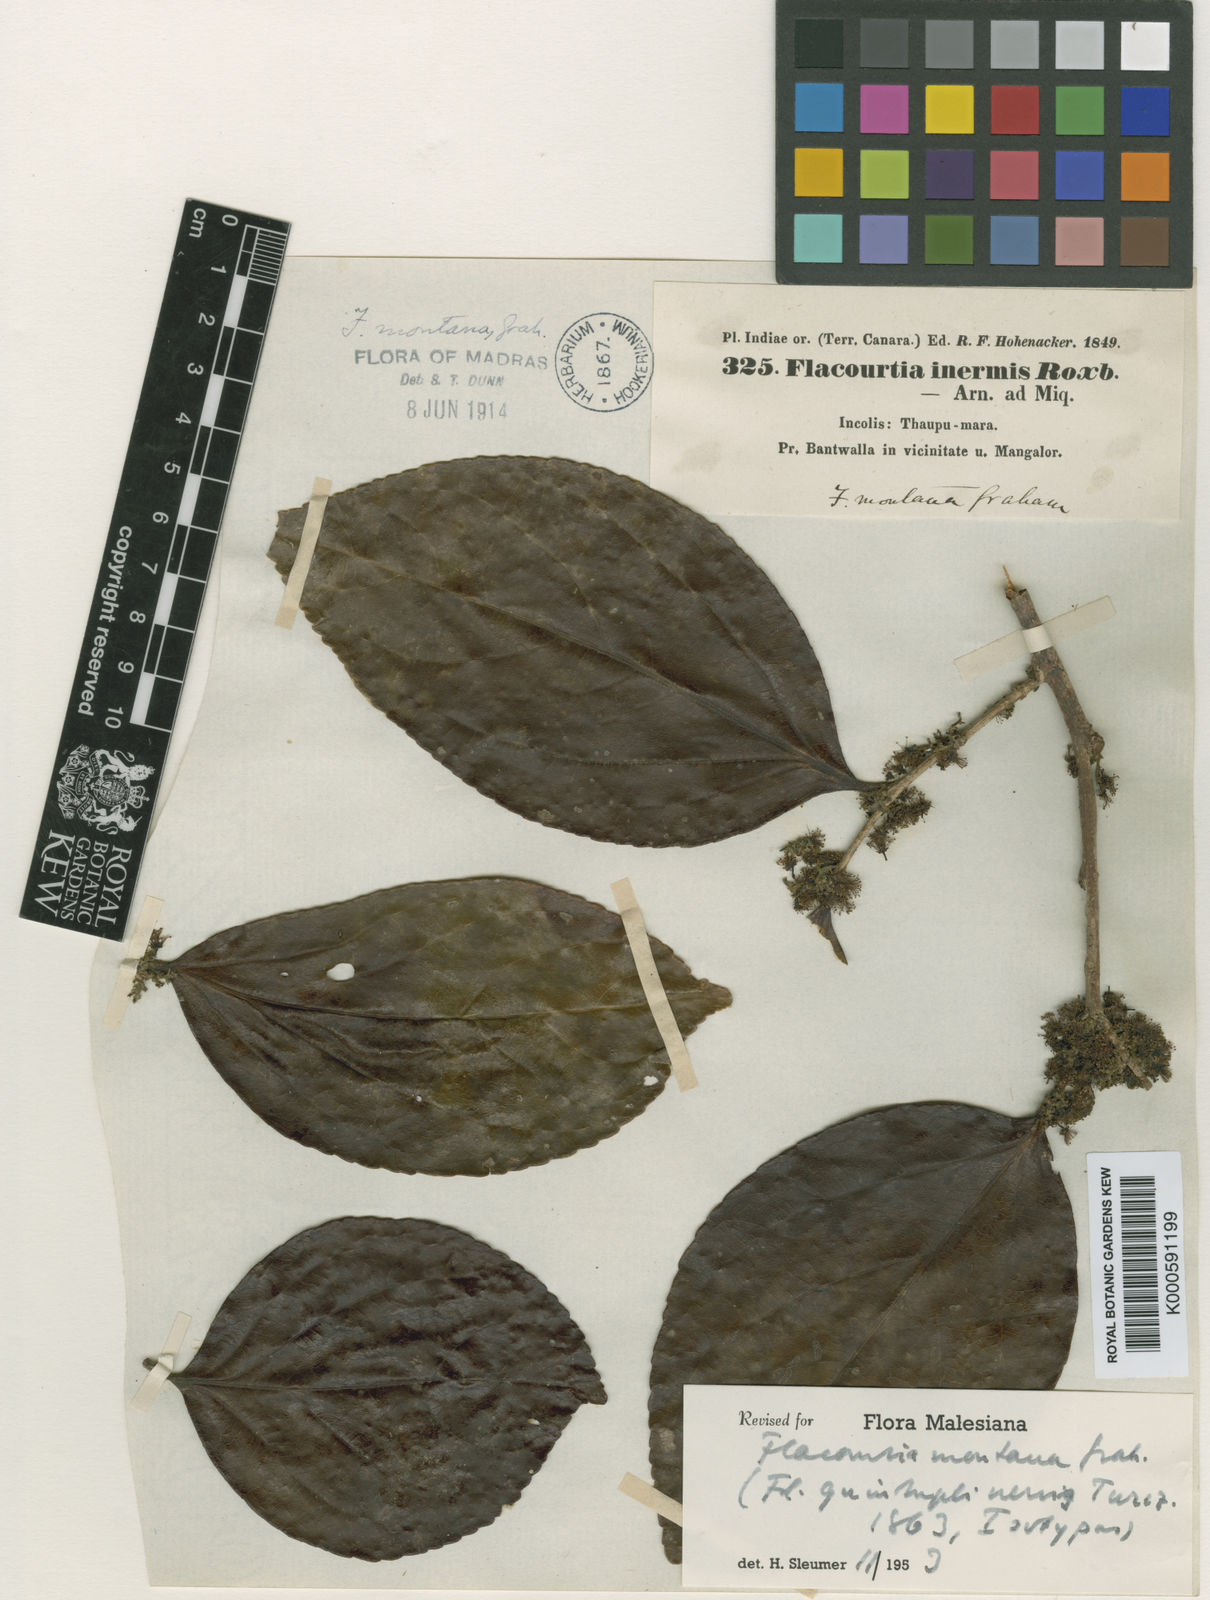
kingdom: Plantae
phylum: Tracheophyta
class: Magnoliopsida
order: Malpighiales
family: Salicaceae
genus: Flacourtia
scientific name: Flacourtia montana
